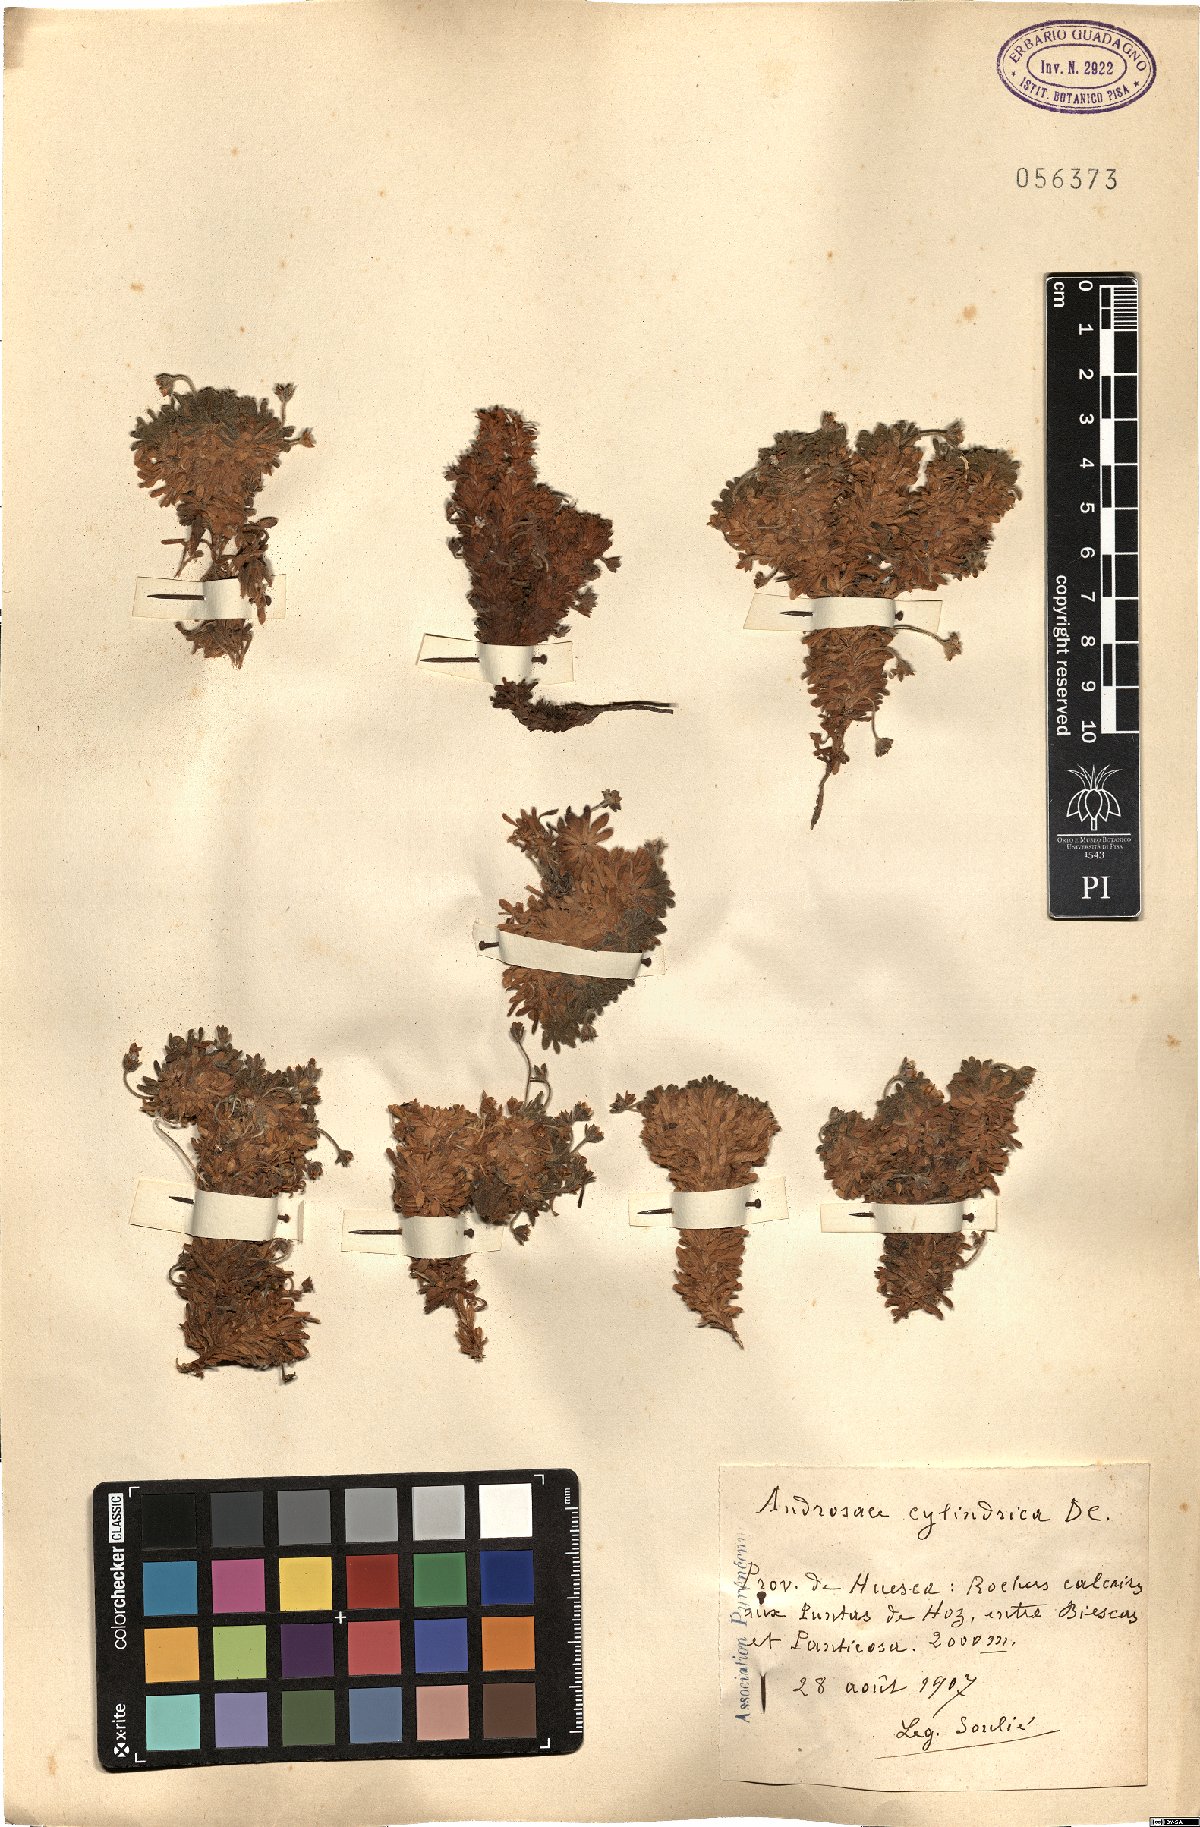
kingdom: Plantae
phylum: Tracheophyta
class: Magnoliopsida
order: Ericales
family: Primulaceae
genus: Androsace
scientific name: Androsace cylindrica
